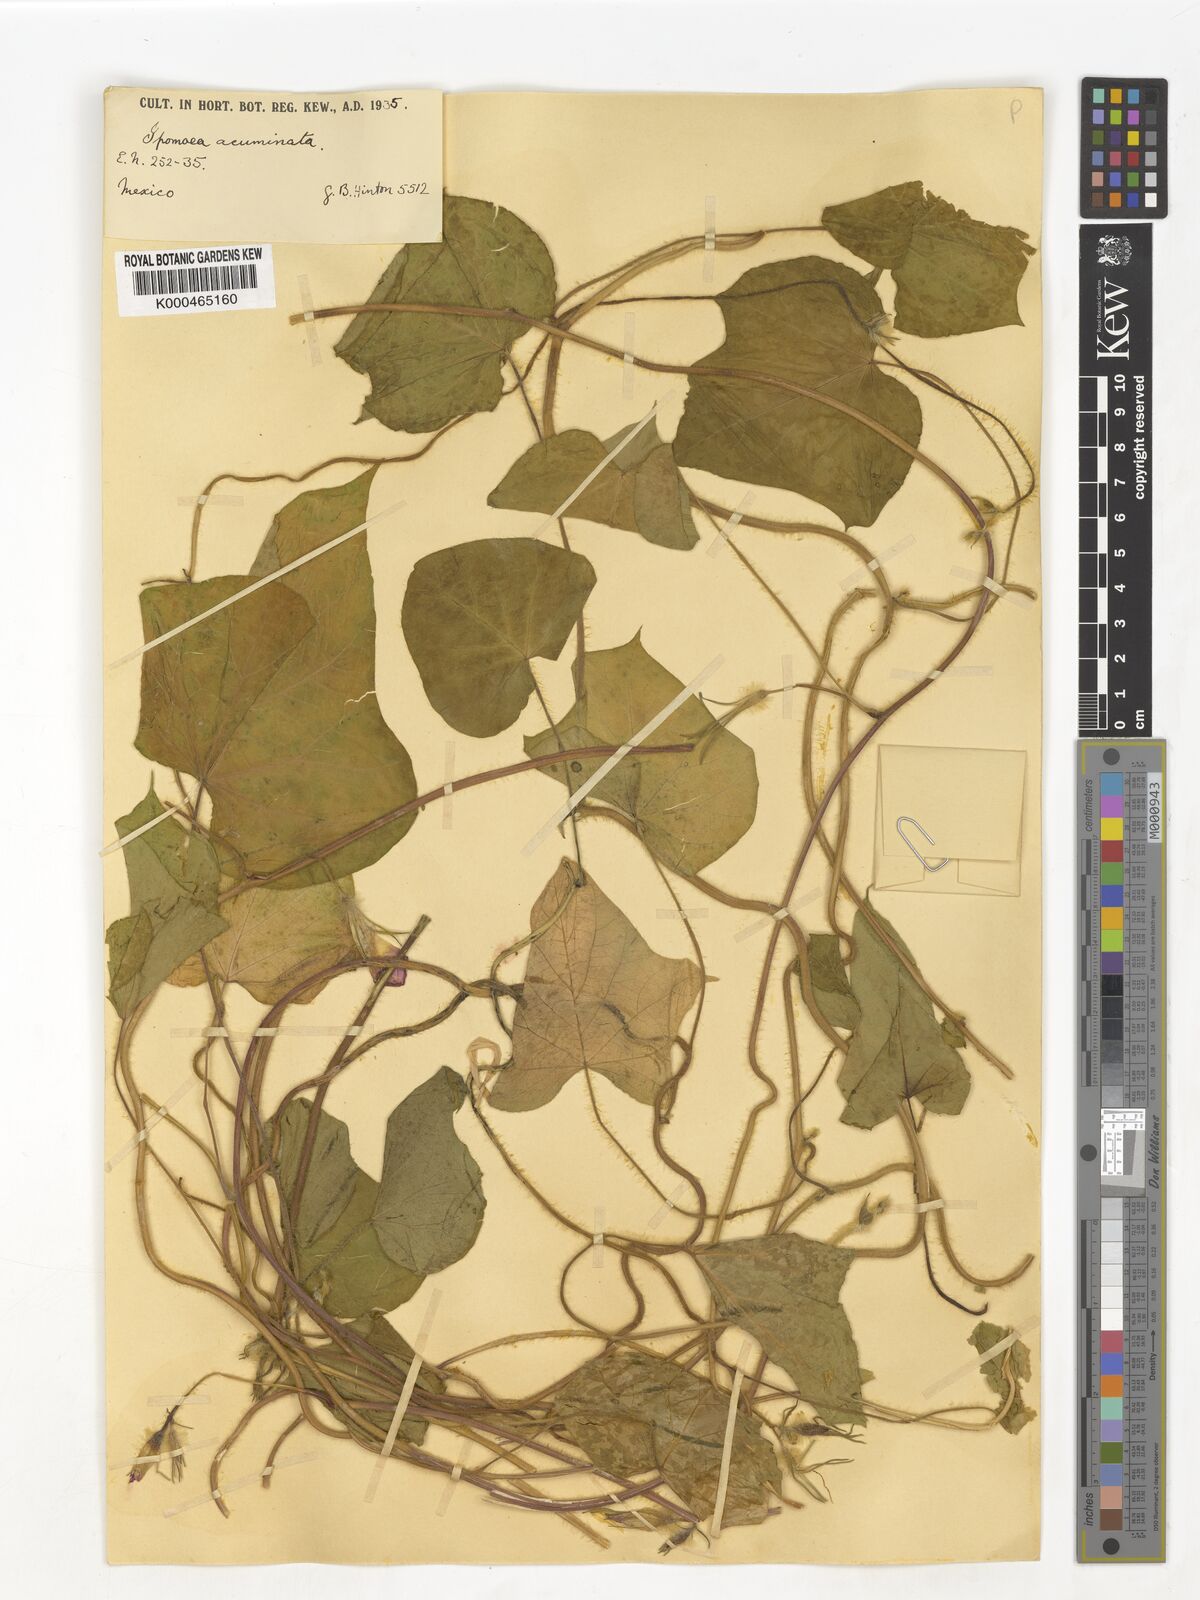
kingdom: Plantae
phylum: Tracheophyta
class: Magnoliopsida
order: Solanales
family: Convolvulaceae
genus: Ipomoea
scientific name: Ipomoea
